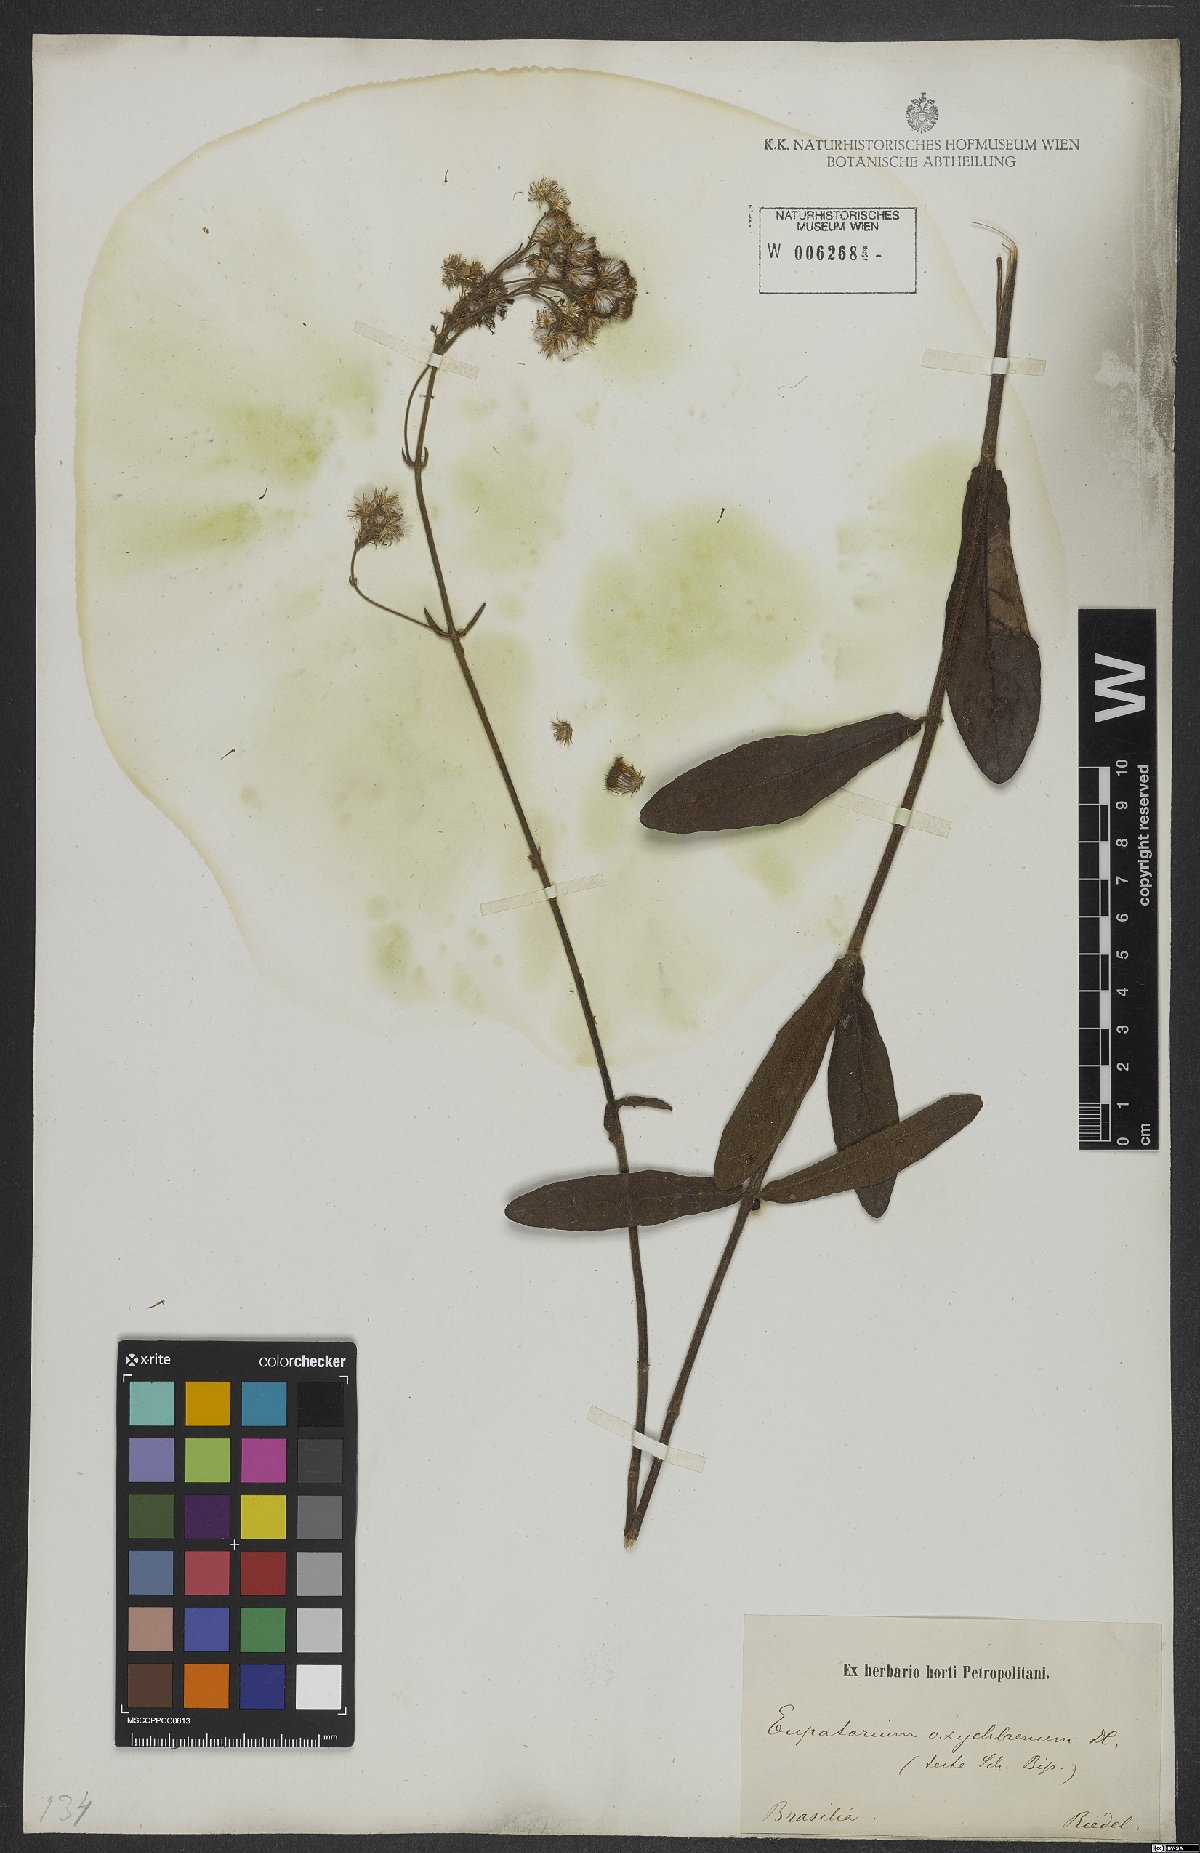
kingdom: Plantae
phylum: Tracheophyta
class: Magnoliopsida
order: Asterales
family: Asteraceae
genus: Ayapana
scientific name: Ayapana amygdalina
